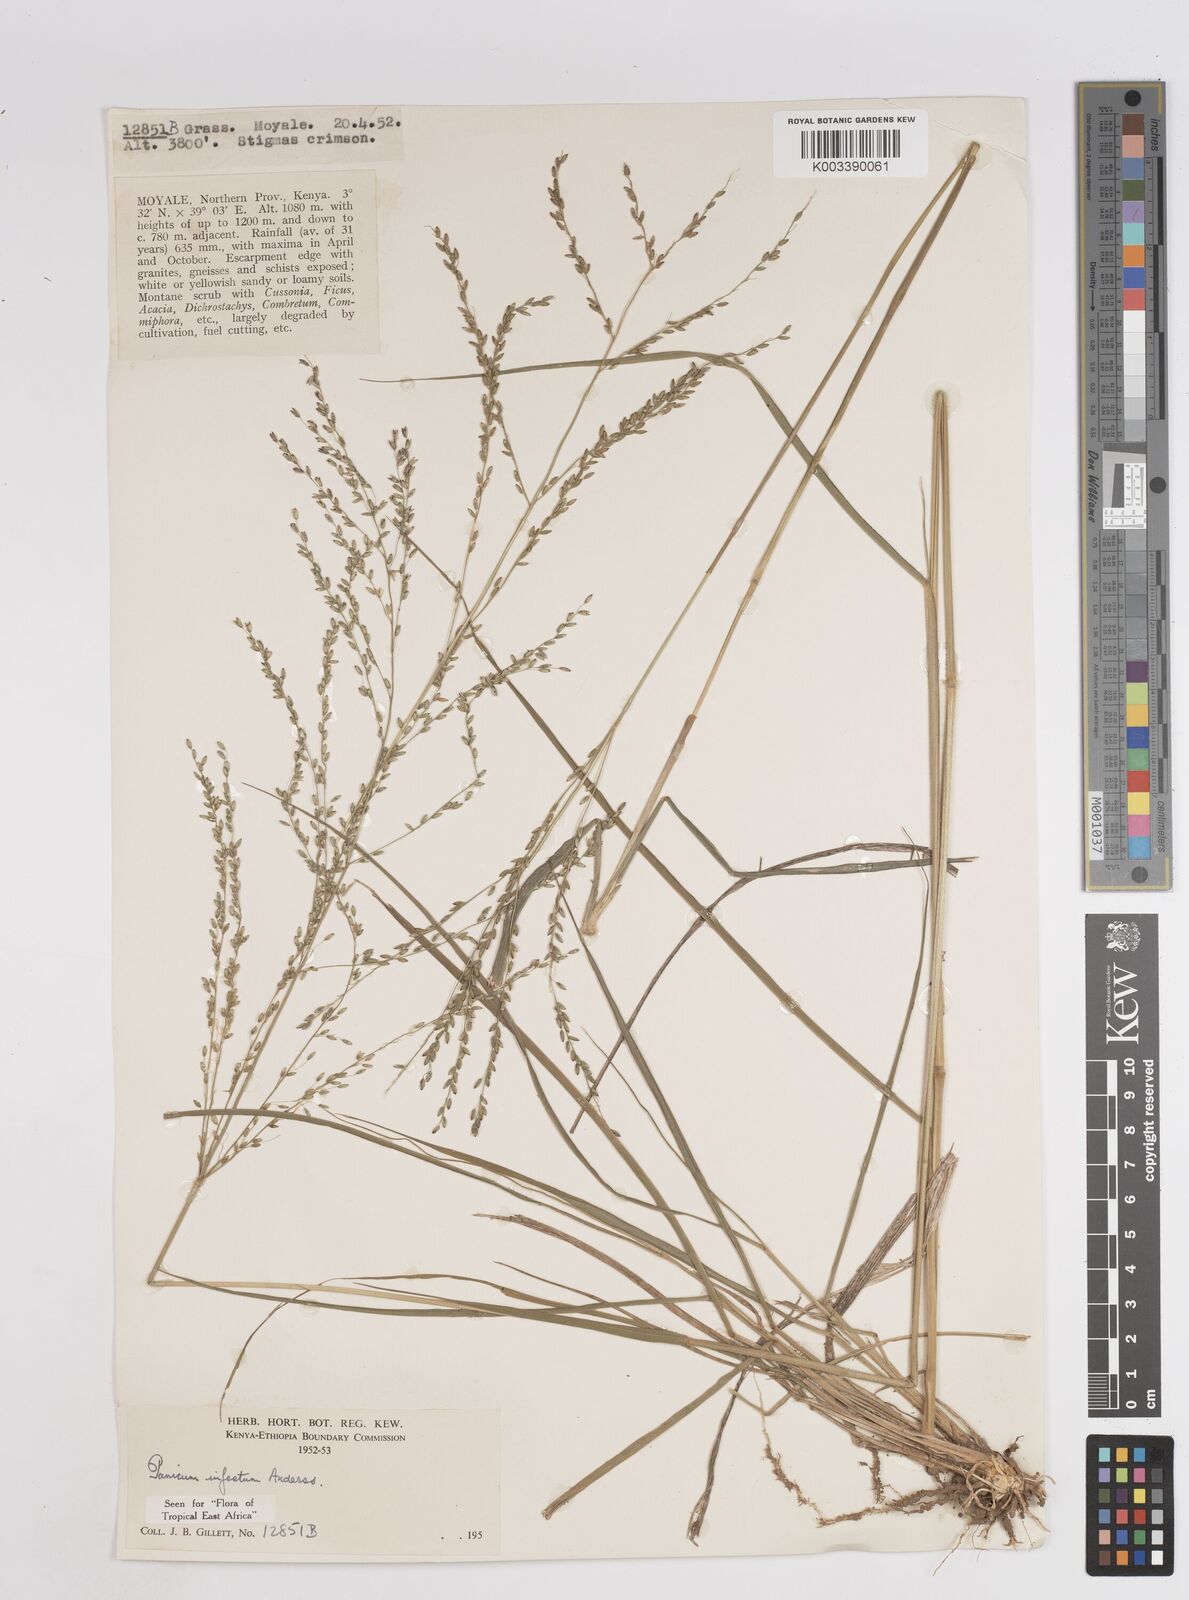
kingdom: Plantae
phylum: Tracheophyta
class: Liliopsida
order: Poales
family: Poaceae
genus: Megathyrsus
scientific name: Megathyrsus infestus
